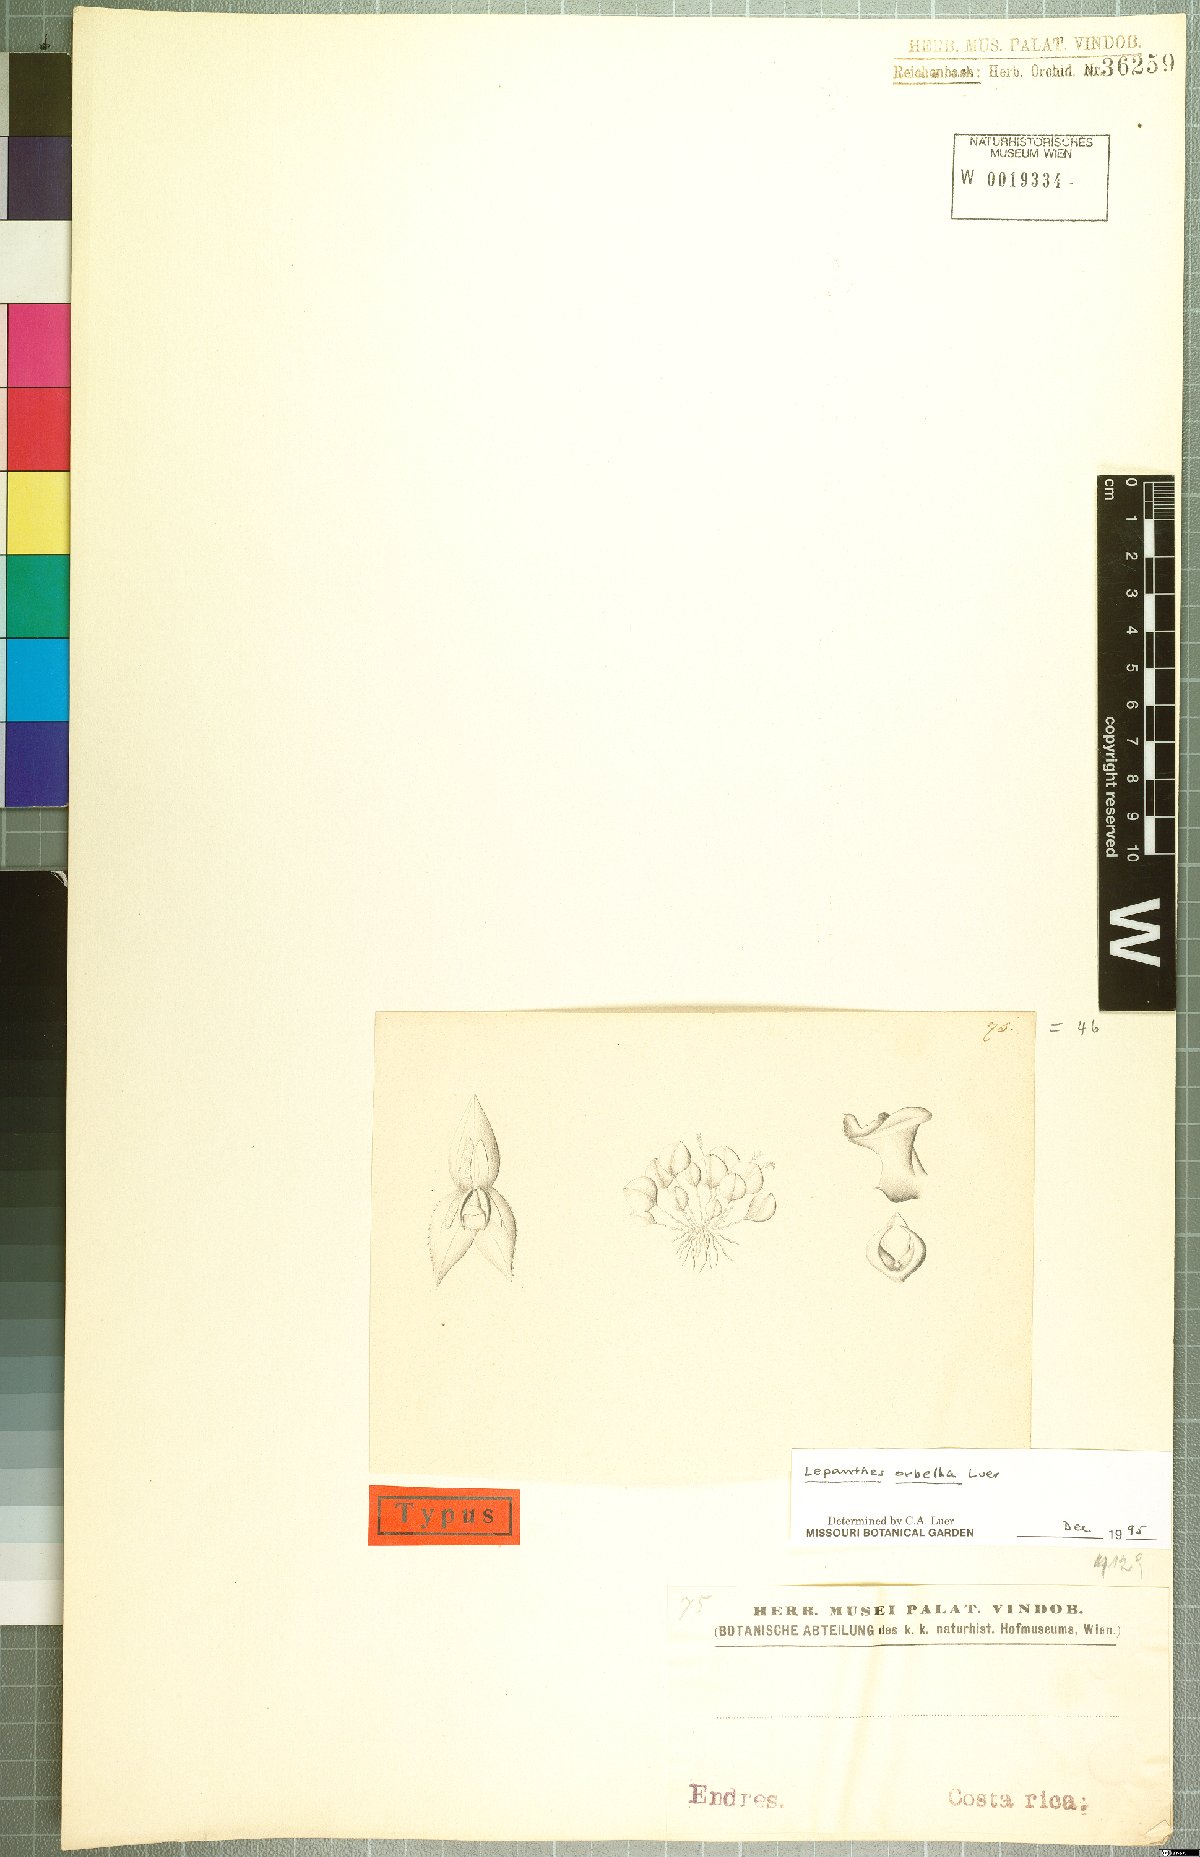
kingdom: Plantae
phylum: Tracheophyta
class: Liliopsida
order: Asparagales
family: Orchidaceae
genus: Lepanthes
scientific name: Lepanthes orbella
